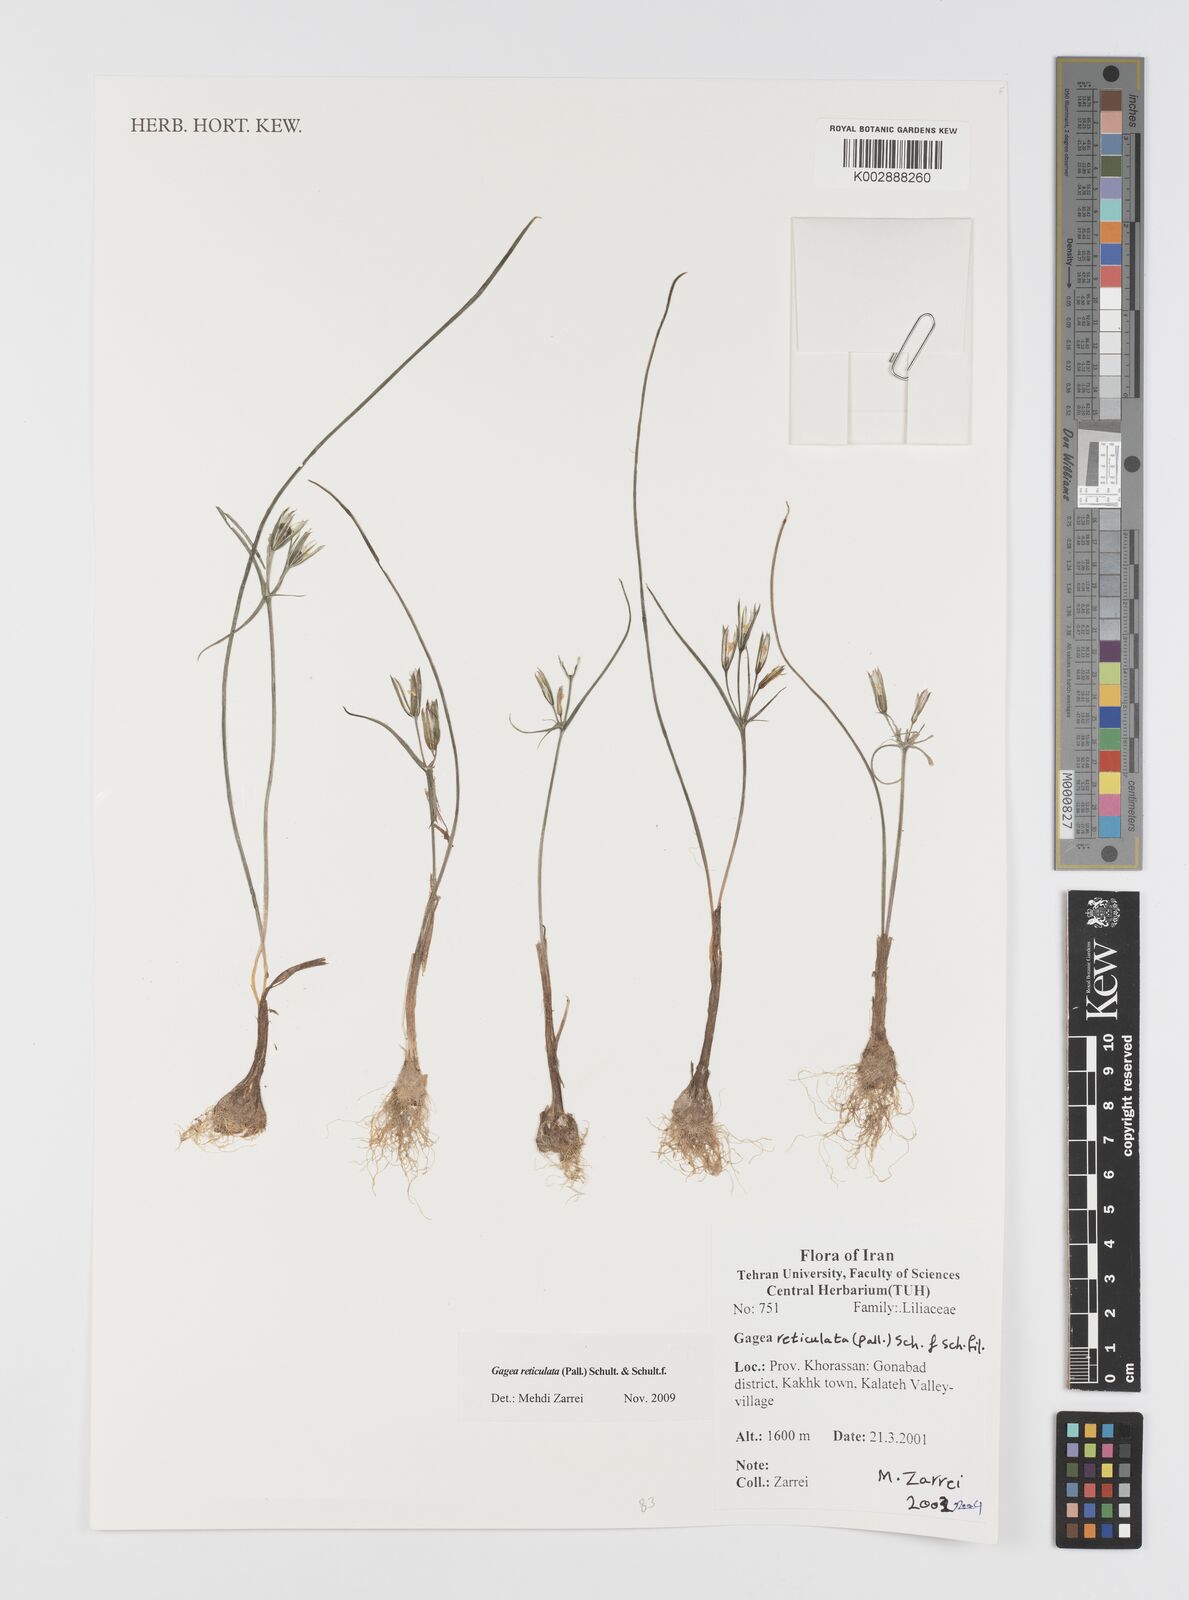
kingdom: Plantae
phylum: Tracheophyta
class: Liliopsida
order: Liliales
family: Liliaceae
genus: Gagea
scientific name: Gagea reticulata
